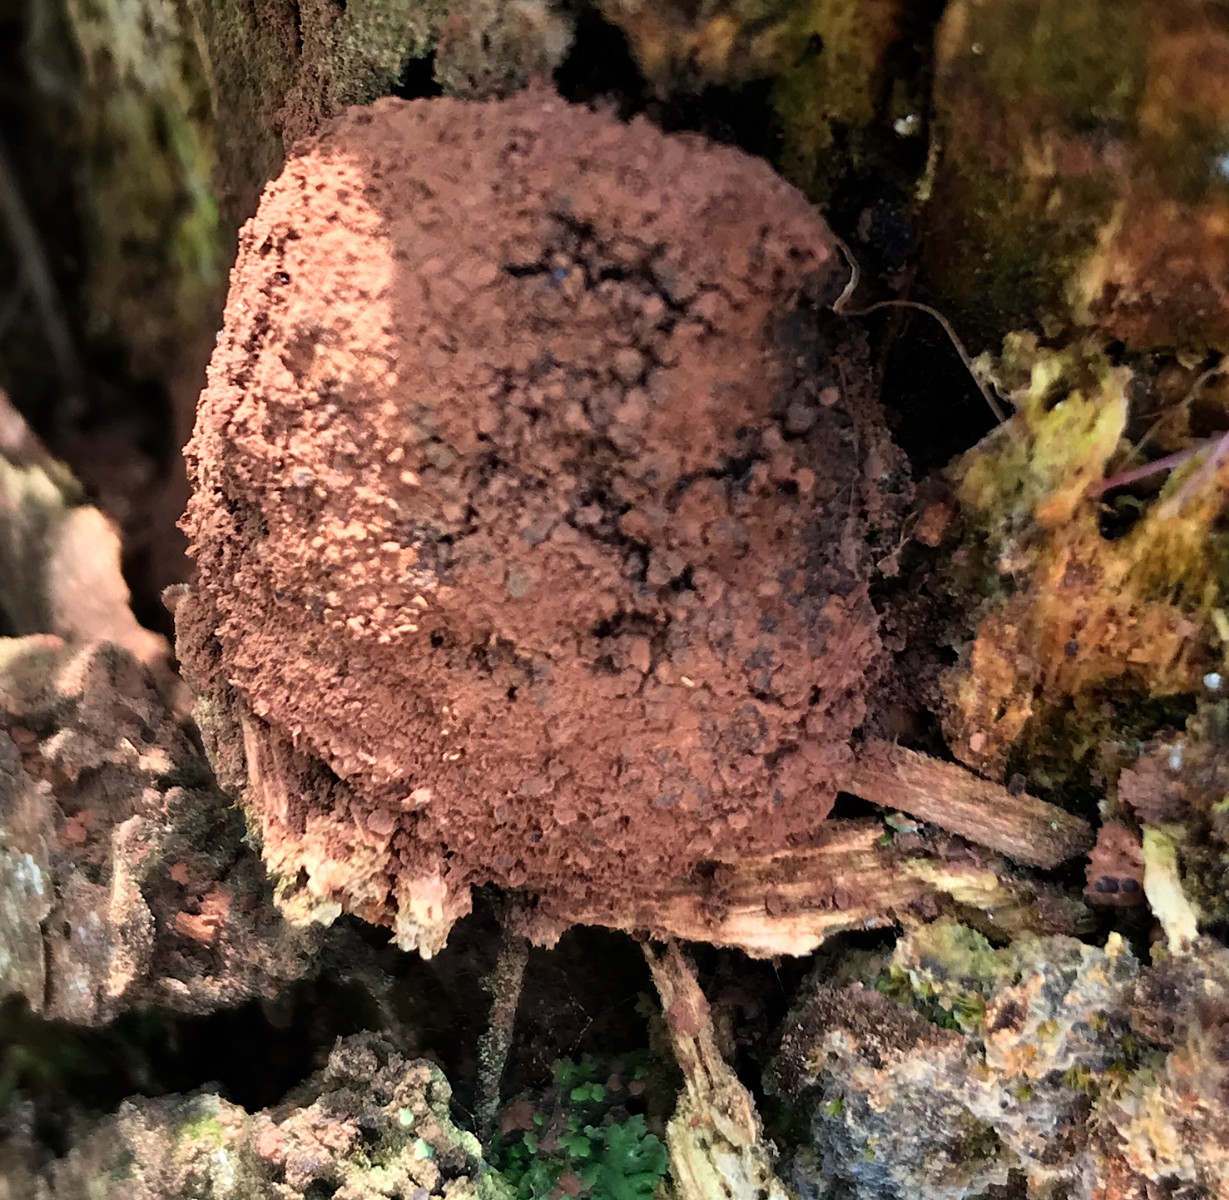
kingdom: Protozoa
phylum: Mycetozoa
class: Myxomycetes
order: Cribrariales
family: Tubiferaceae
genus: Tubifera
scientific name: Tubifera ferruginosa
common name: kanel-støvrør
